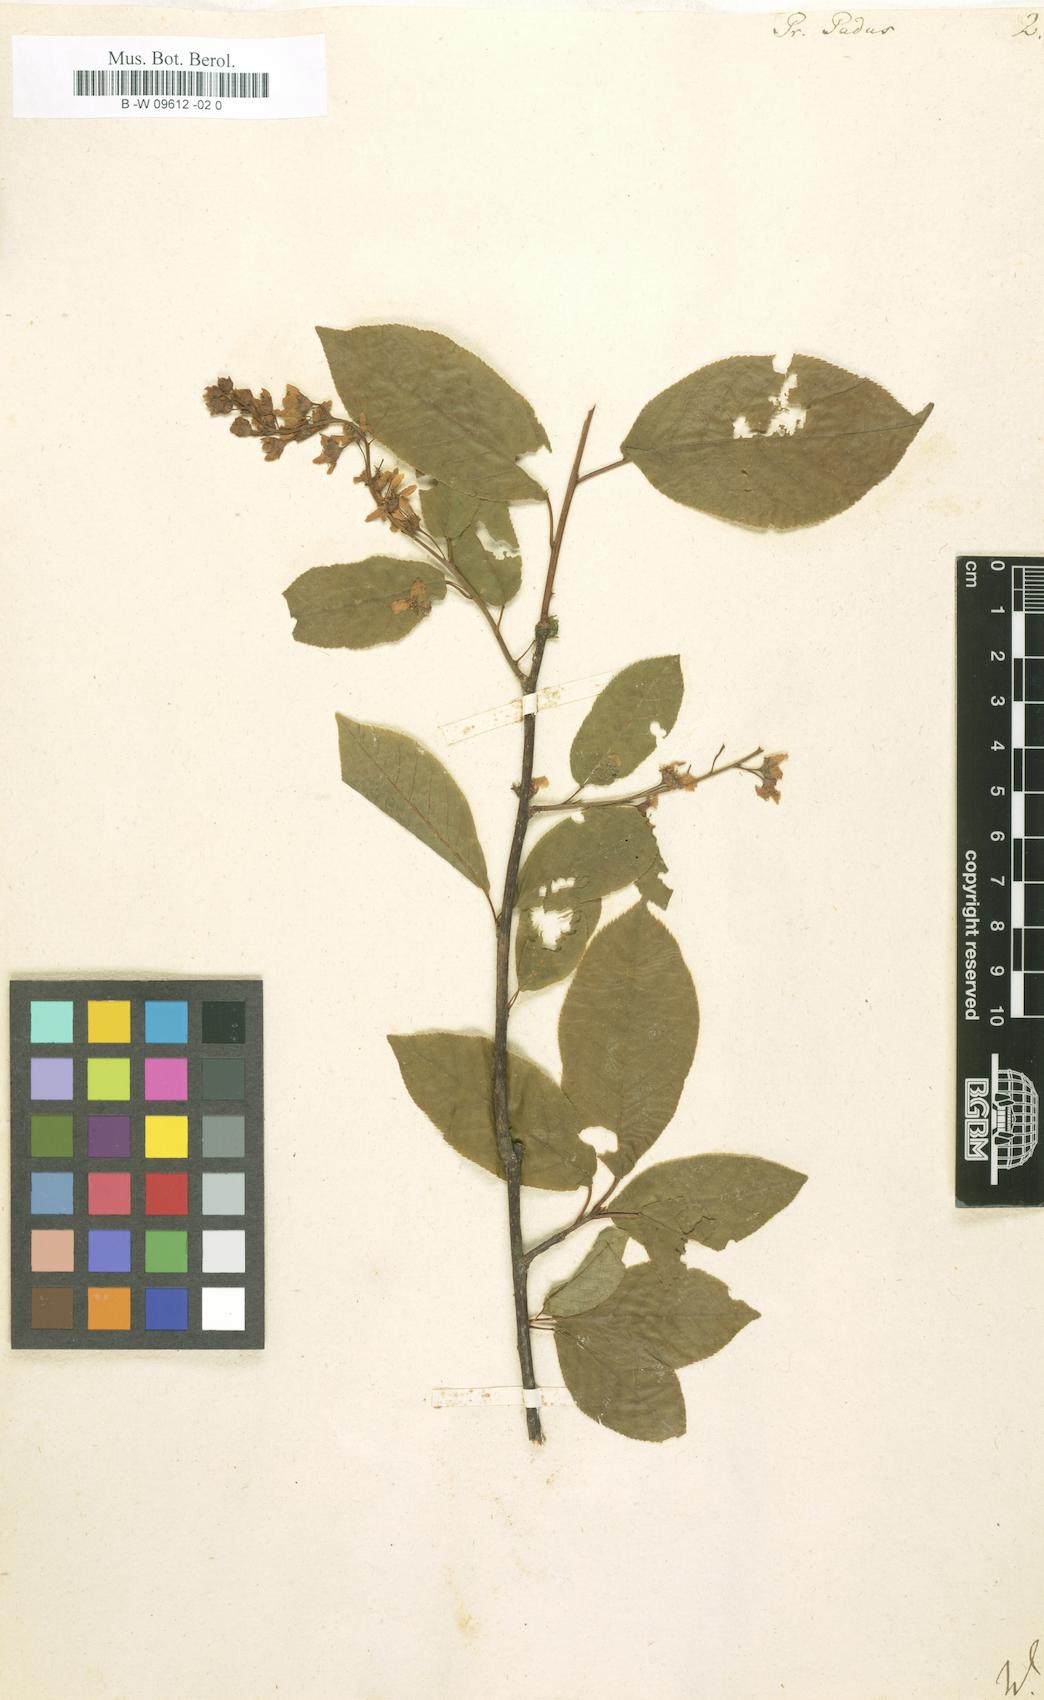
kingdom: Plantae
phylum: Tracheophyta
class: Magnoliopsida
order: Rosales
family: Rosaceae
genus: Prunus
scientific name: Prunus padus
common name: Bird cherry
